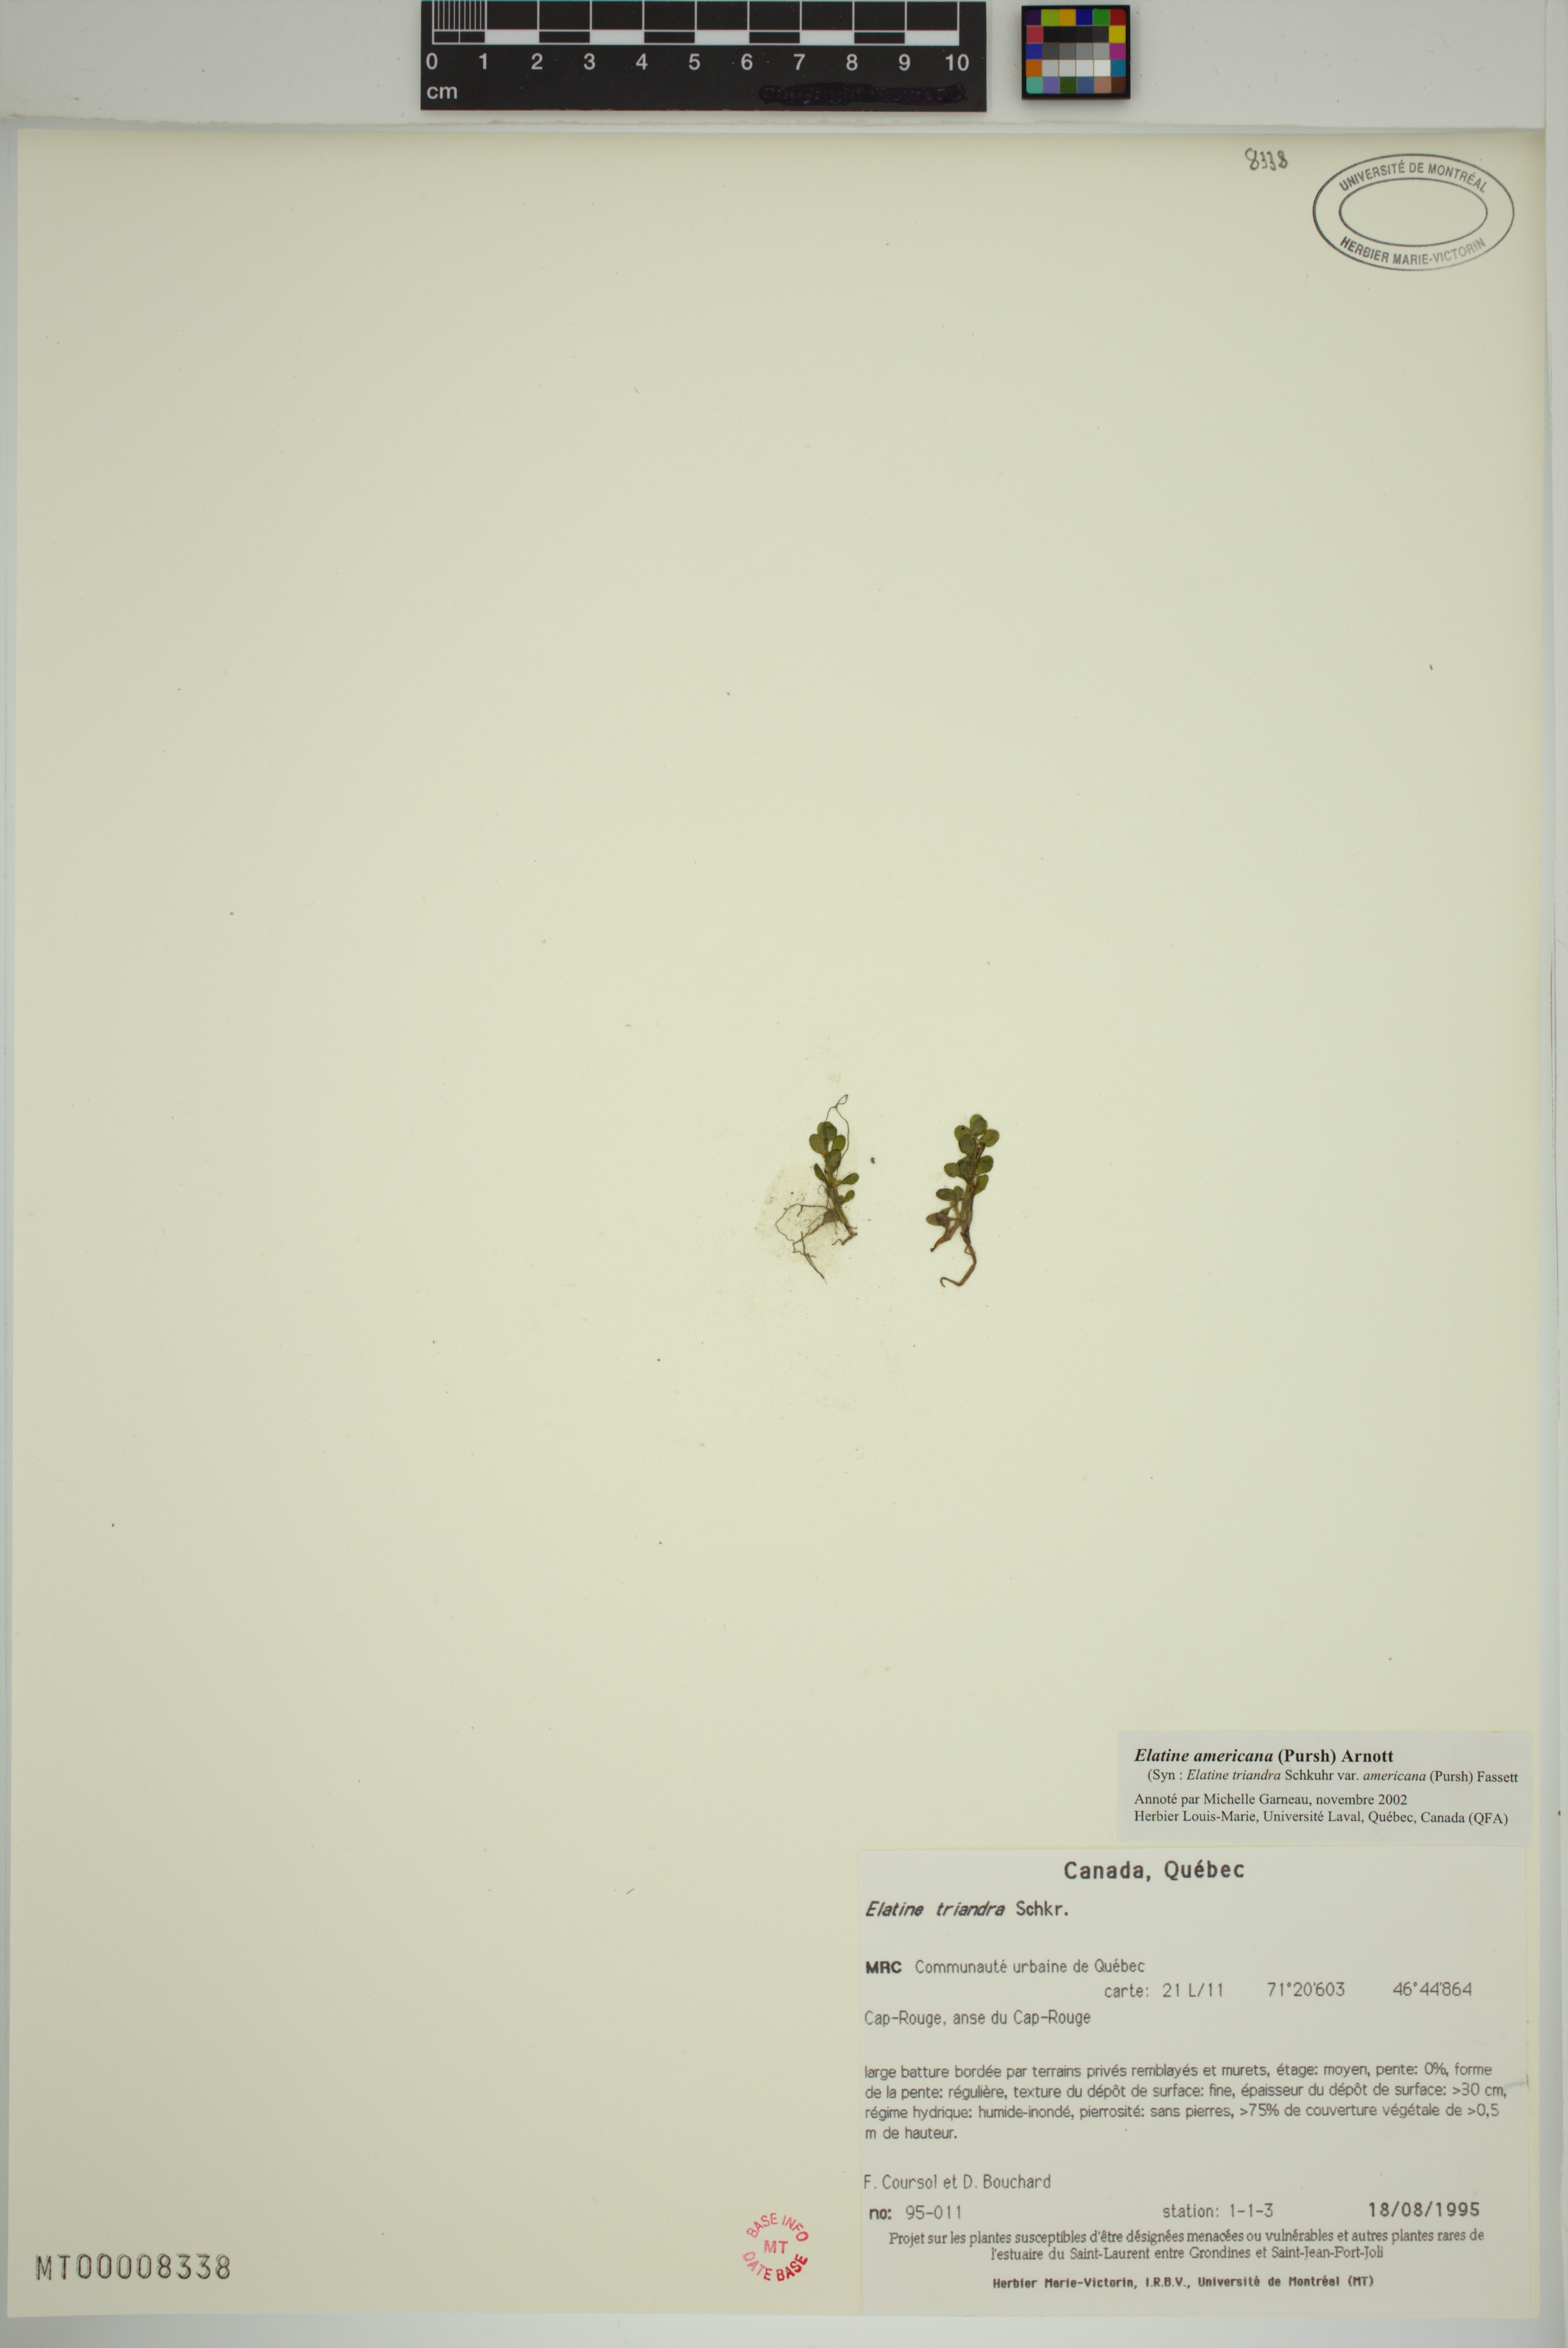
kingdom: Plantae
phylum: Tracheophyta
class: Magnoliopsida
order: Malpighiales
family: Elatinaceae
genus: Elatine
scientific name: Elatine americana
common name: American waterwort
